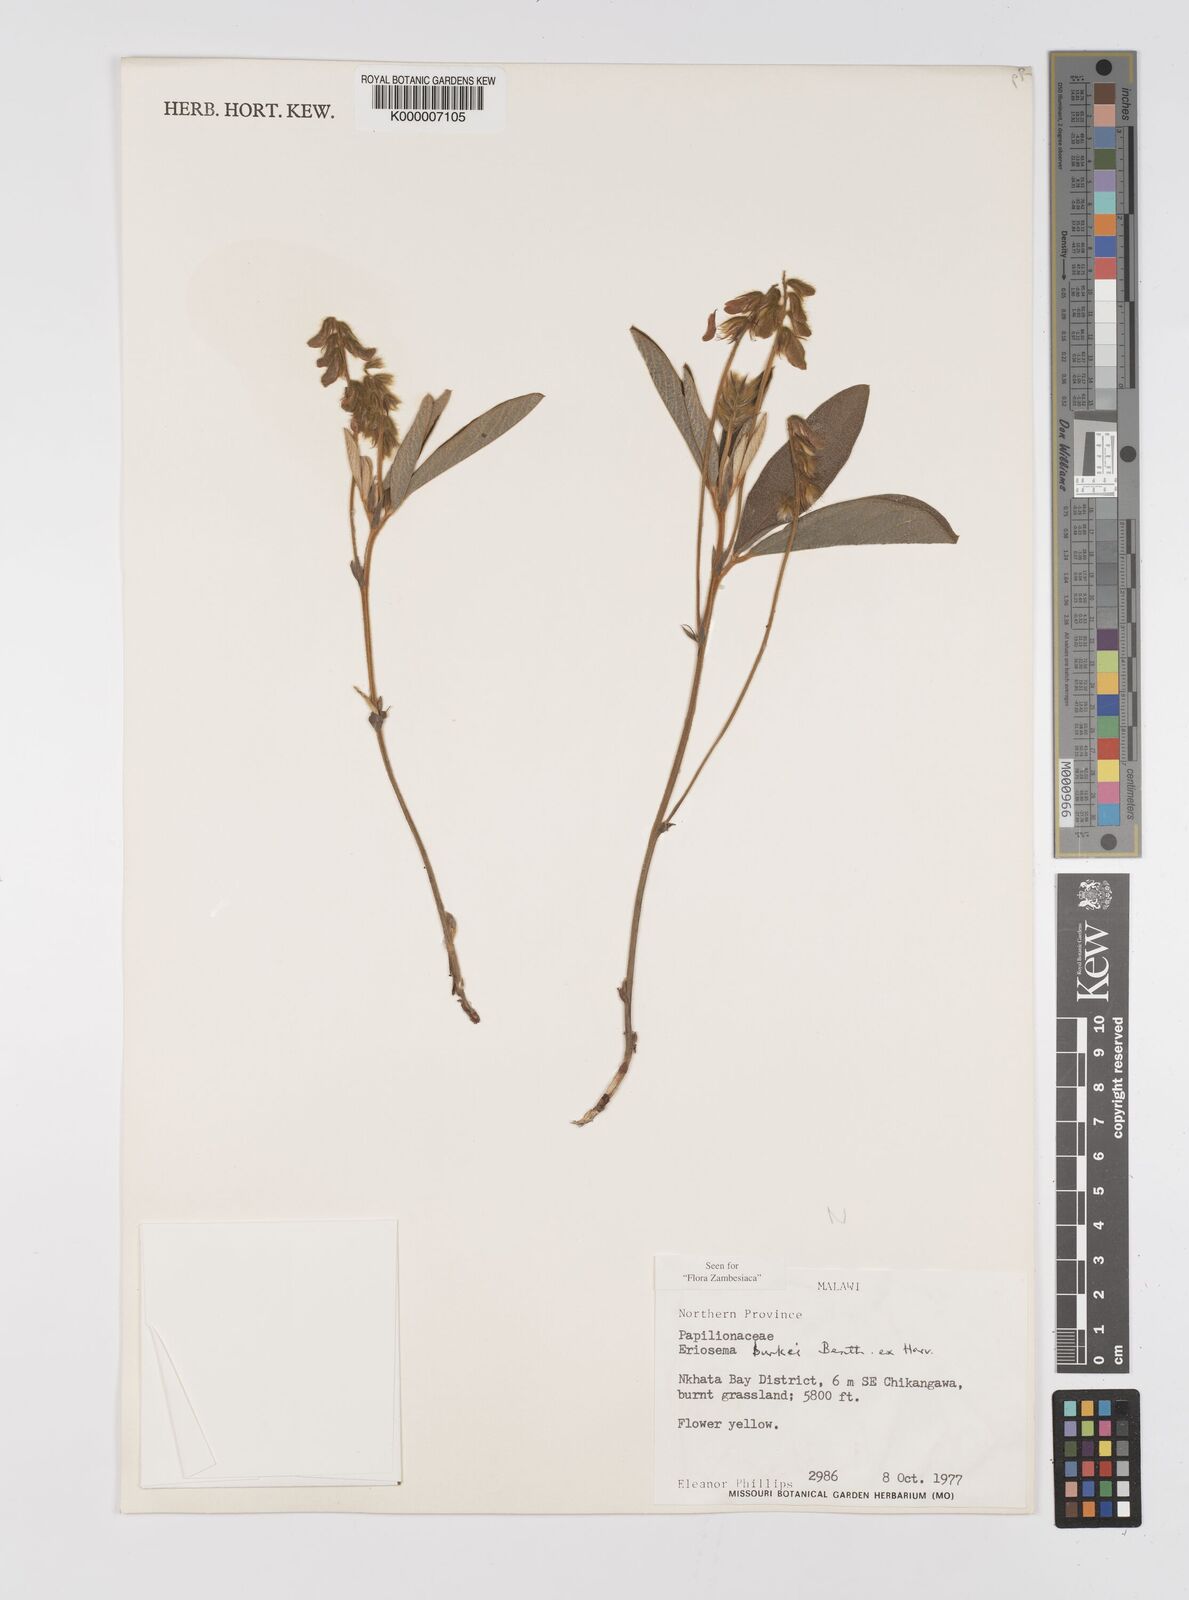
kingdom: Plantae
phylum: Tracheophyta
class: Magnoliopsida
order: Fabales
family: Fabaceae
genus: Eriosema
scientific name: Eriosema burkei
